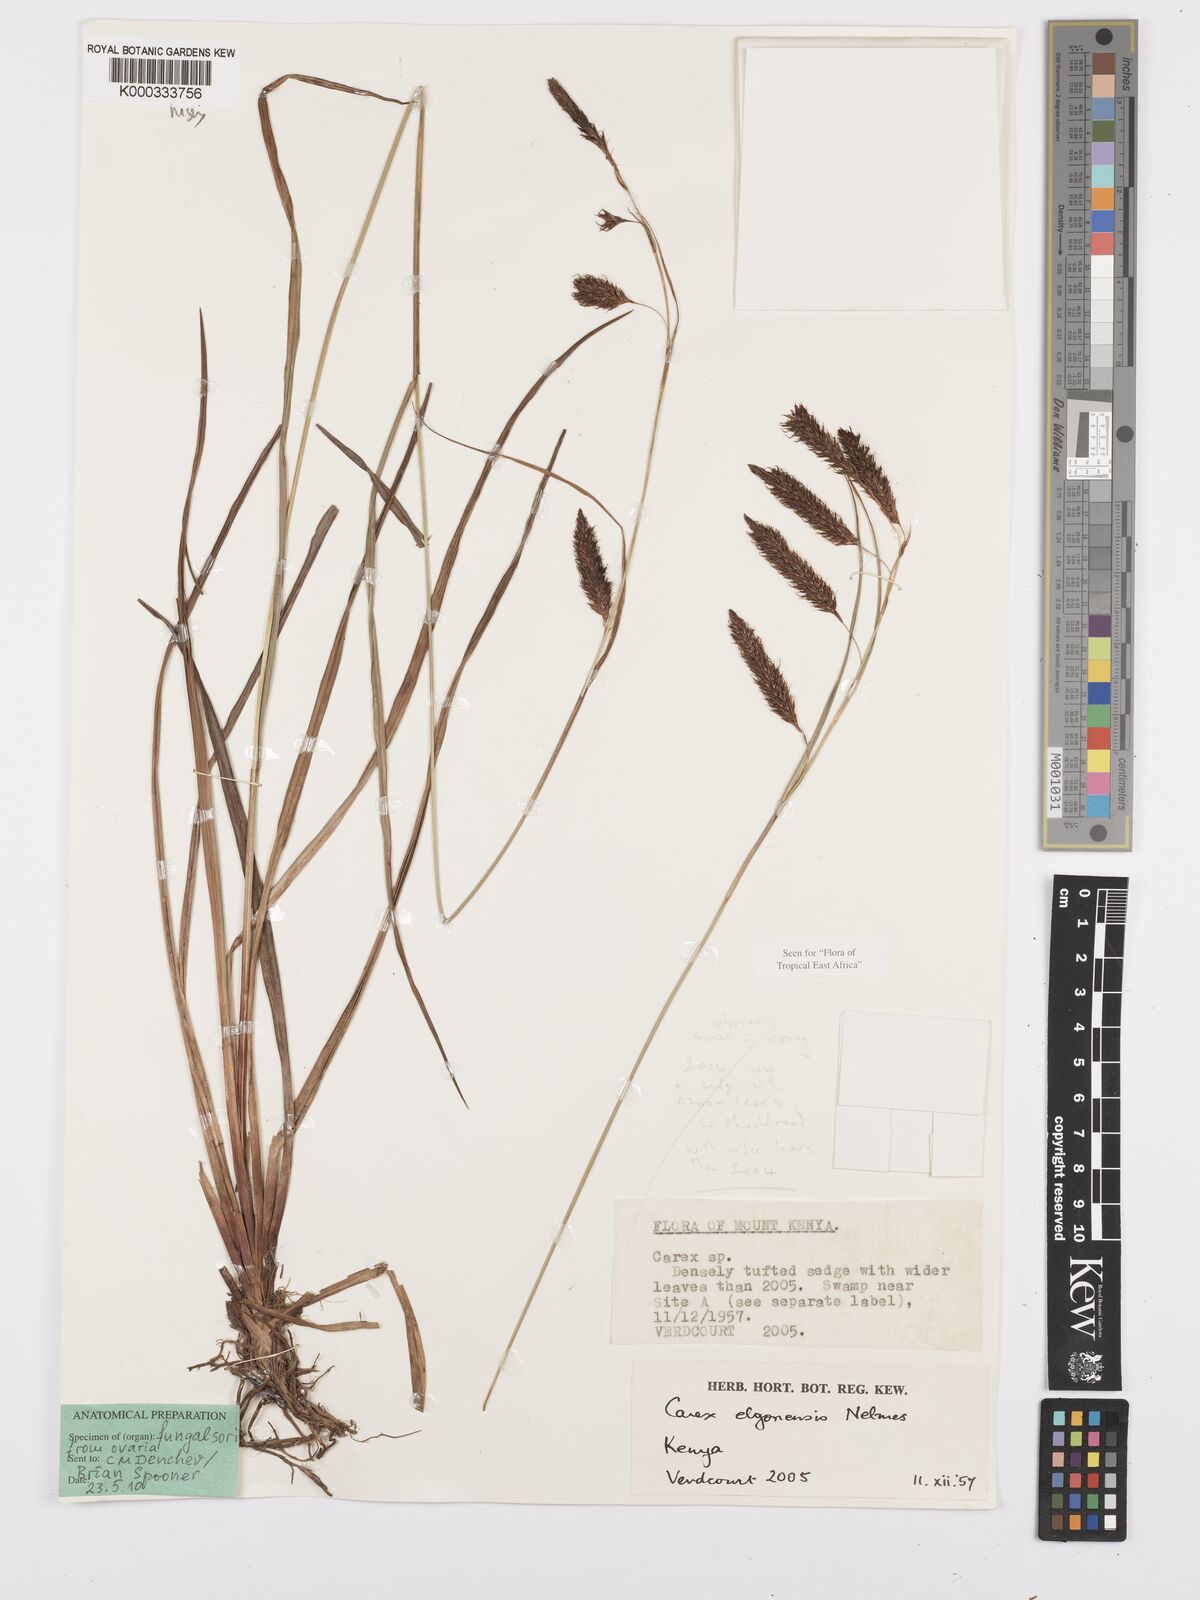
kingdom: Plantae
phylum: Tracheophyta
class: Liliopsida
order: Poales
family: Cyperaceae
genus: Carex
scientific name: Carex elgonensis
